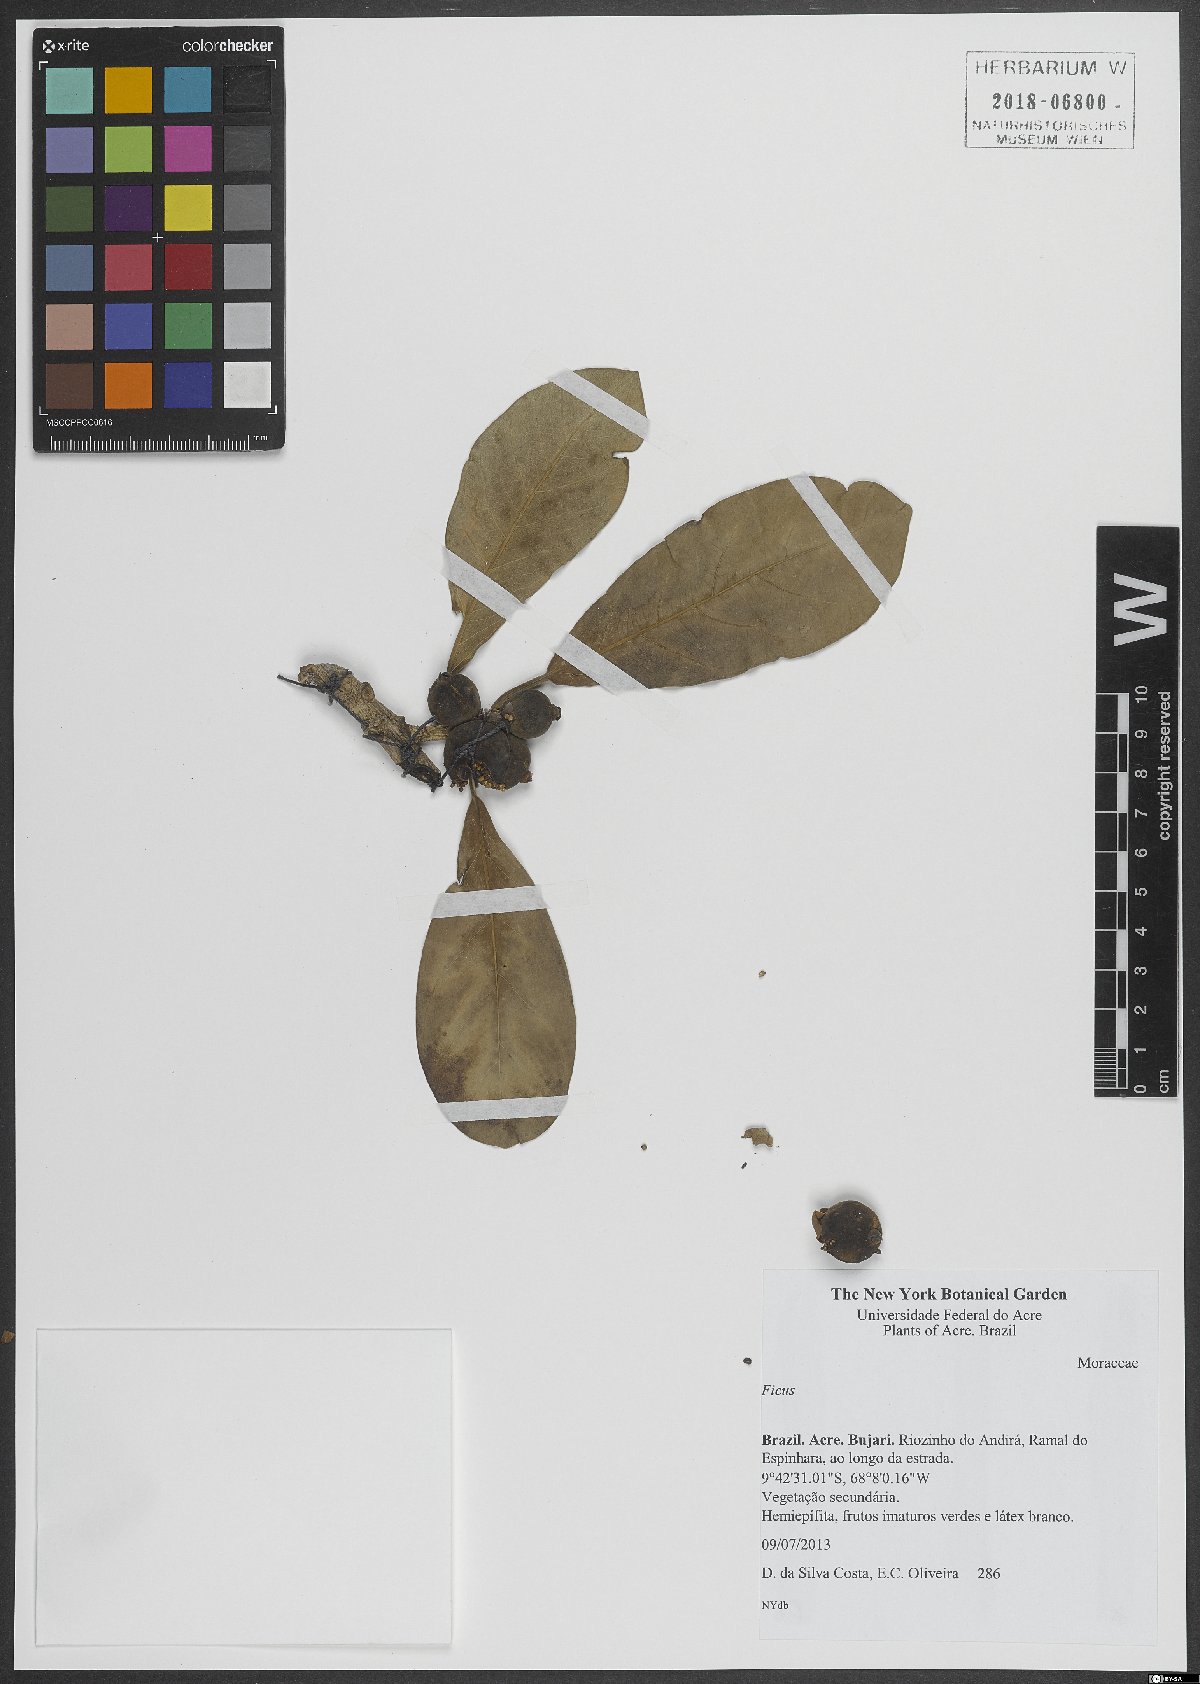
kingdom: Plantae
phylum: Tracheophyta
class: Magnoliopsida
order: Rosales
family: Moraceae
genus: Ficus
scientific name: Ficus
